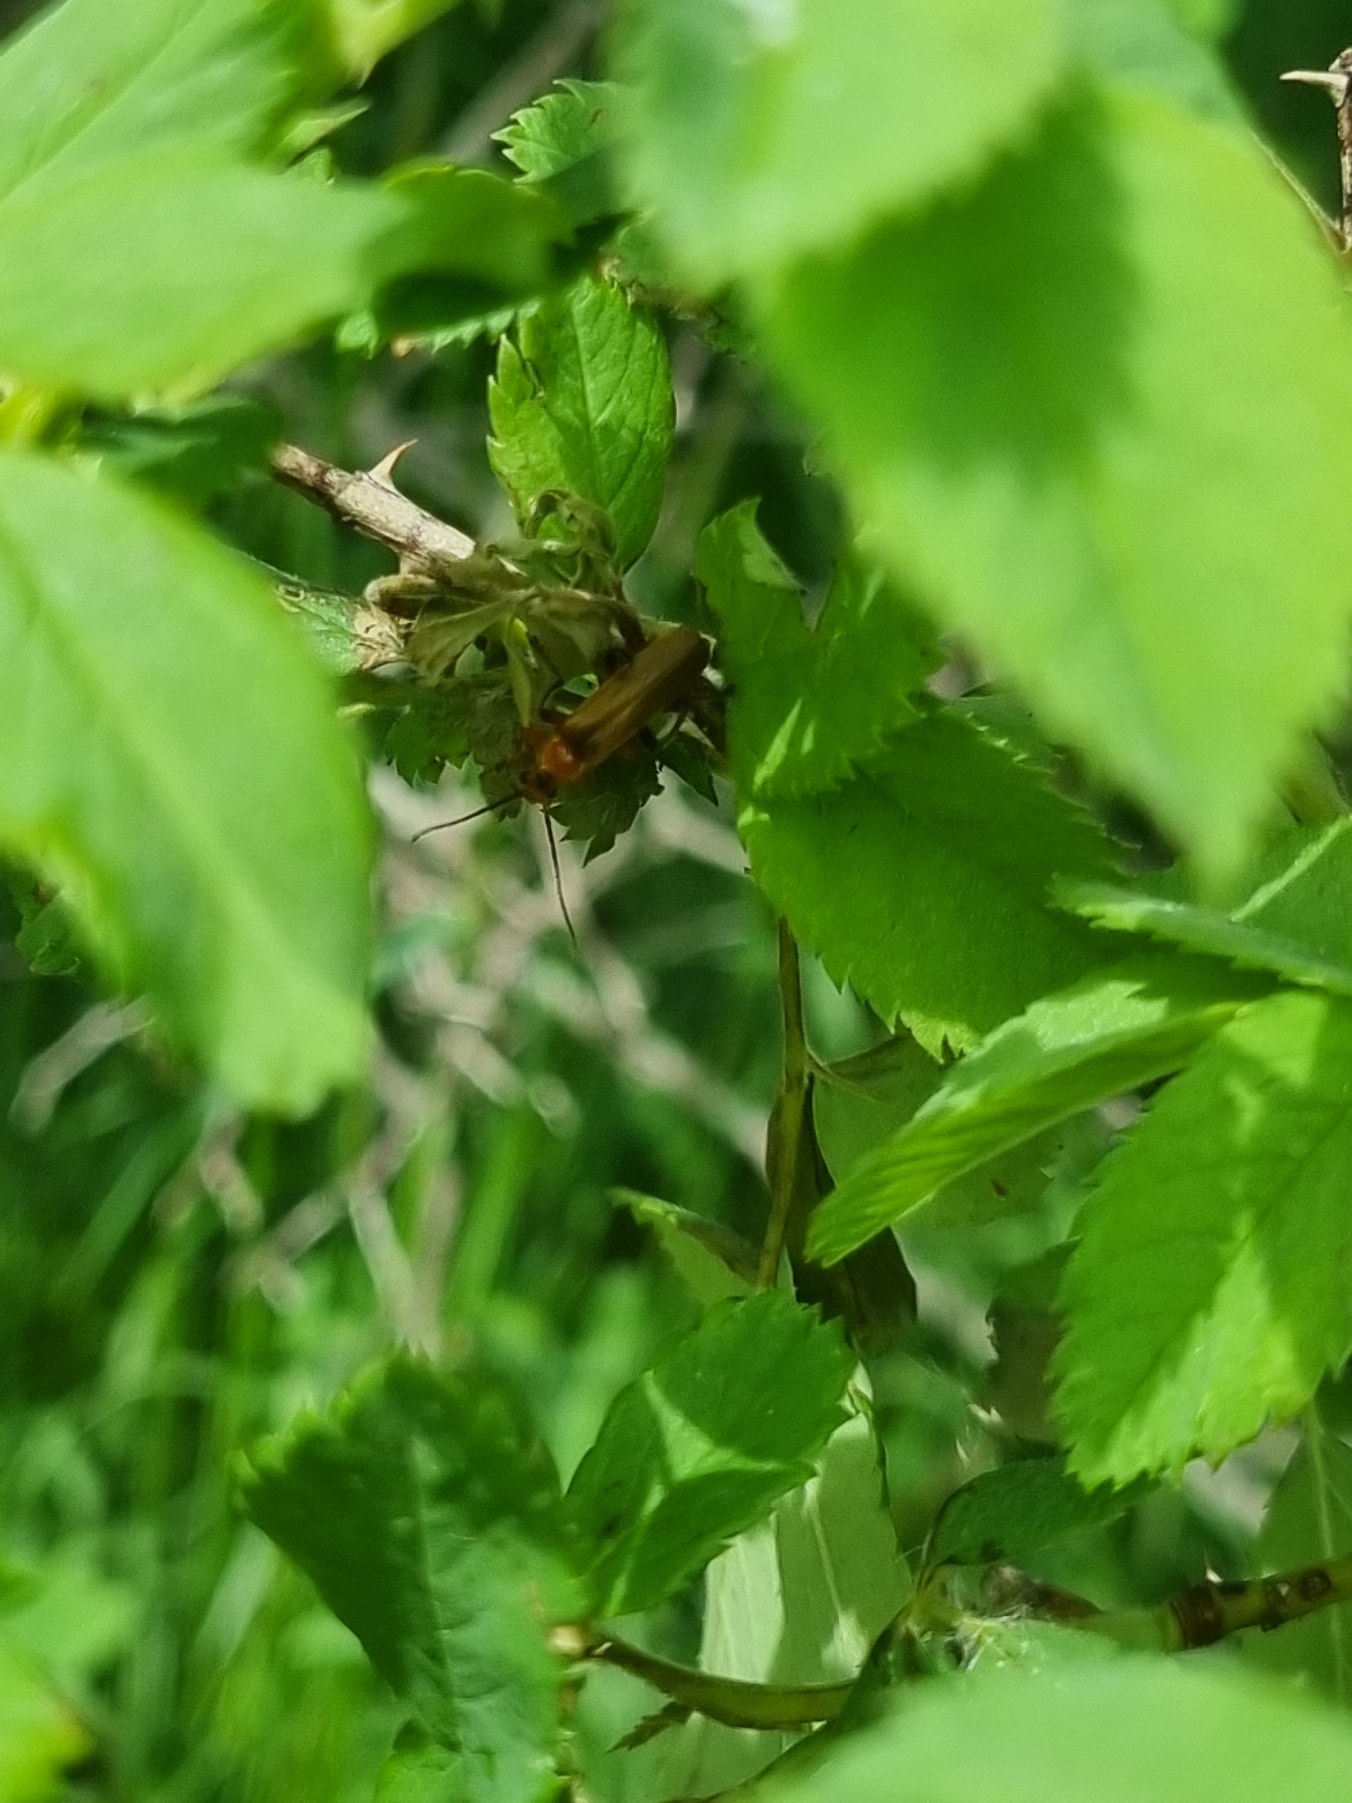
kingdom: Animalia
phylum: Arthropoda
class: Insecta
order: Coleoptera
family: Cantharidae
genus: Cantharis
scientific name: Cantharis livida
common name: Gul blødvinge
